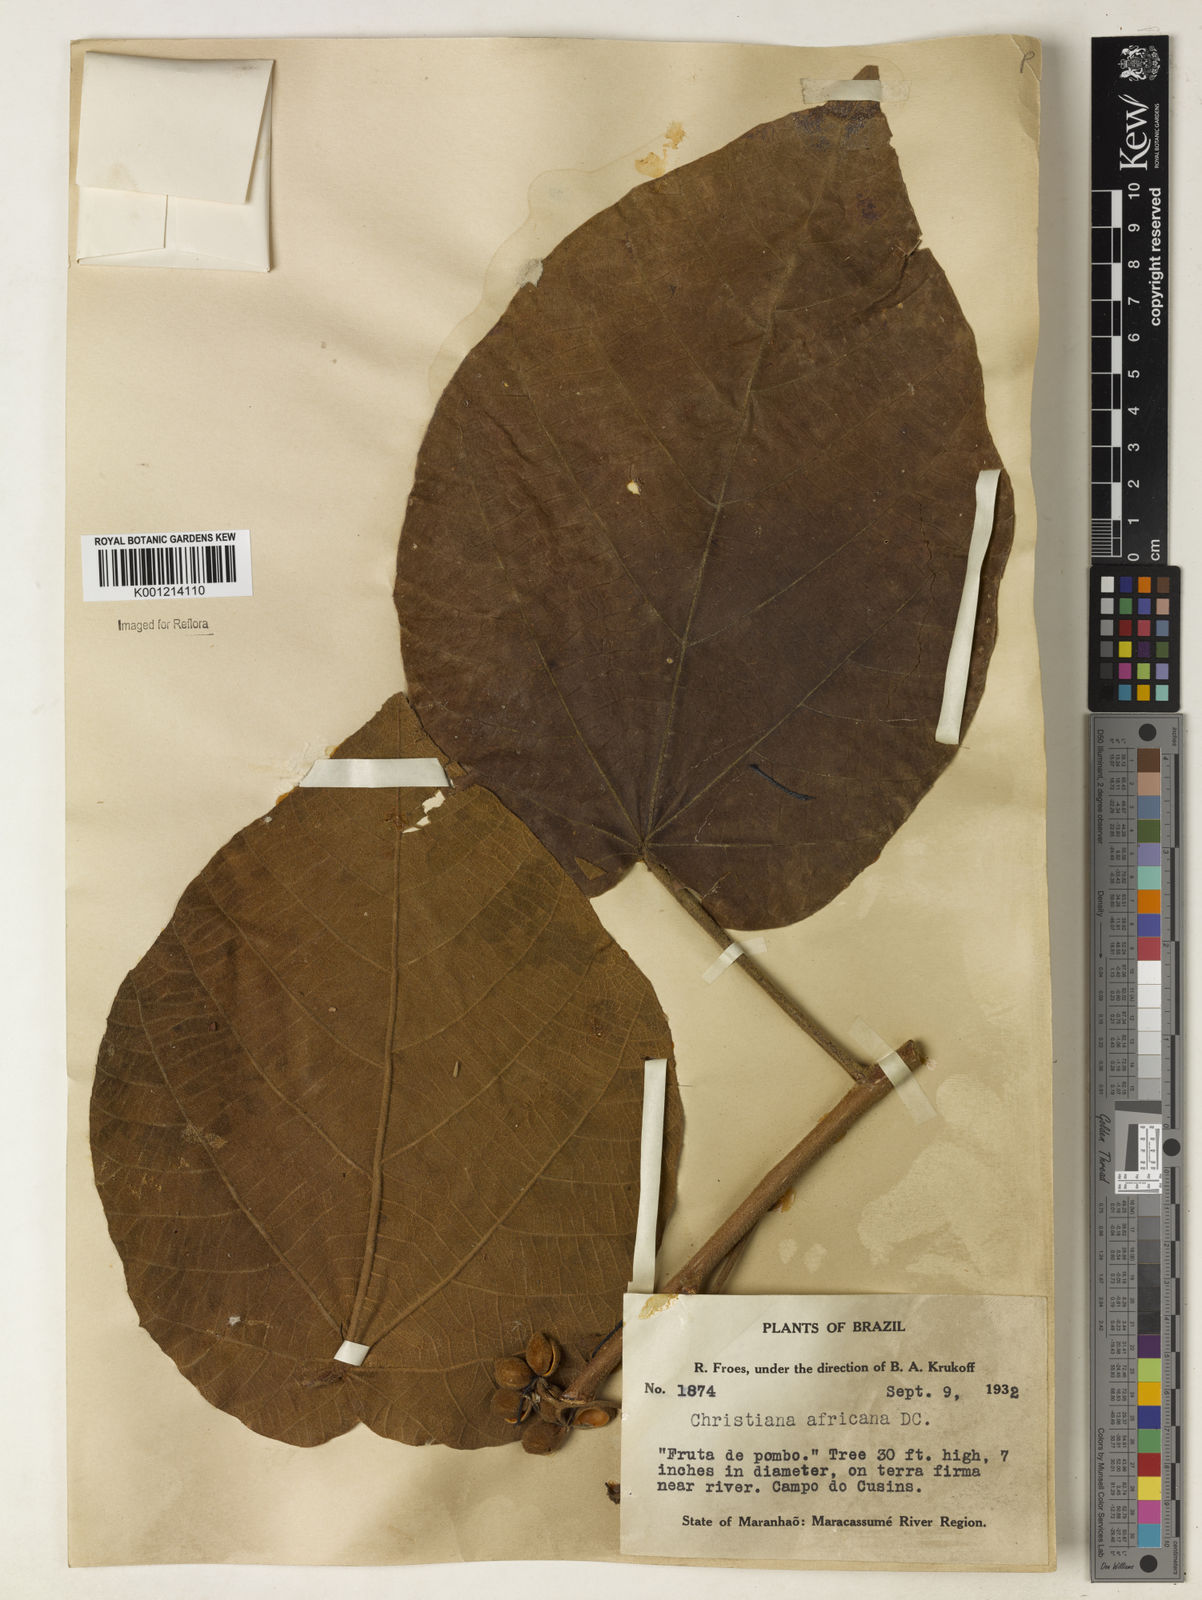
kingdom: Plantae
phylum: Tracheophyta
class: Magnoliopsida
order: Malvales
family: Malvaceae
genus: Christiana
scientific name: Christiana africana
